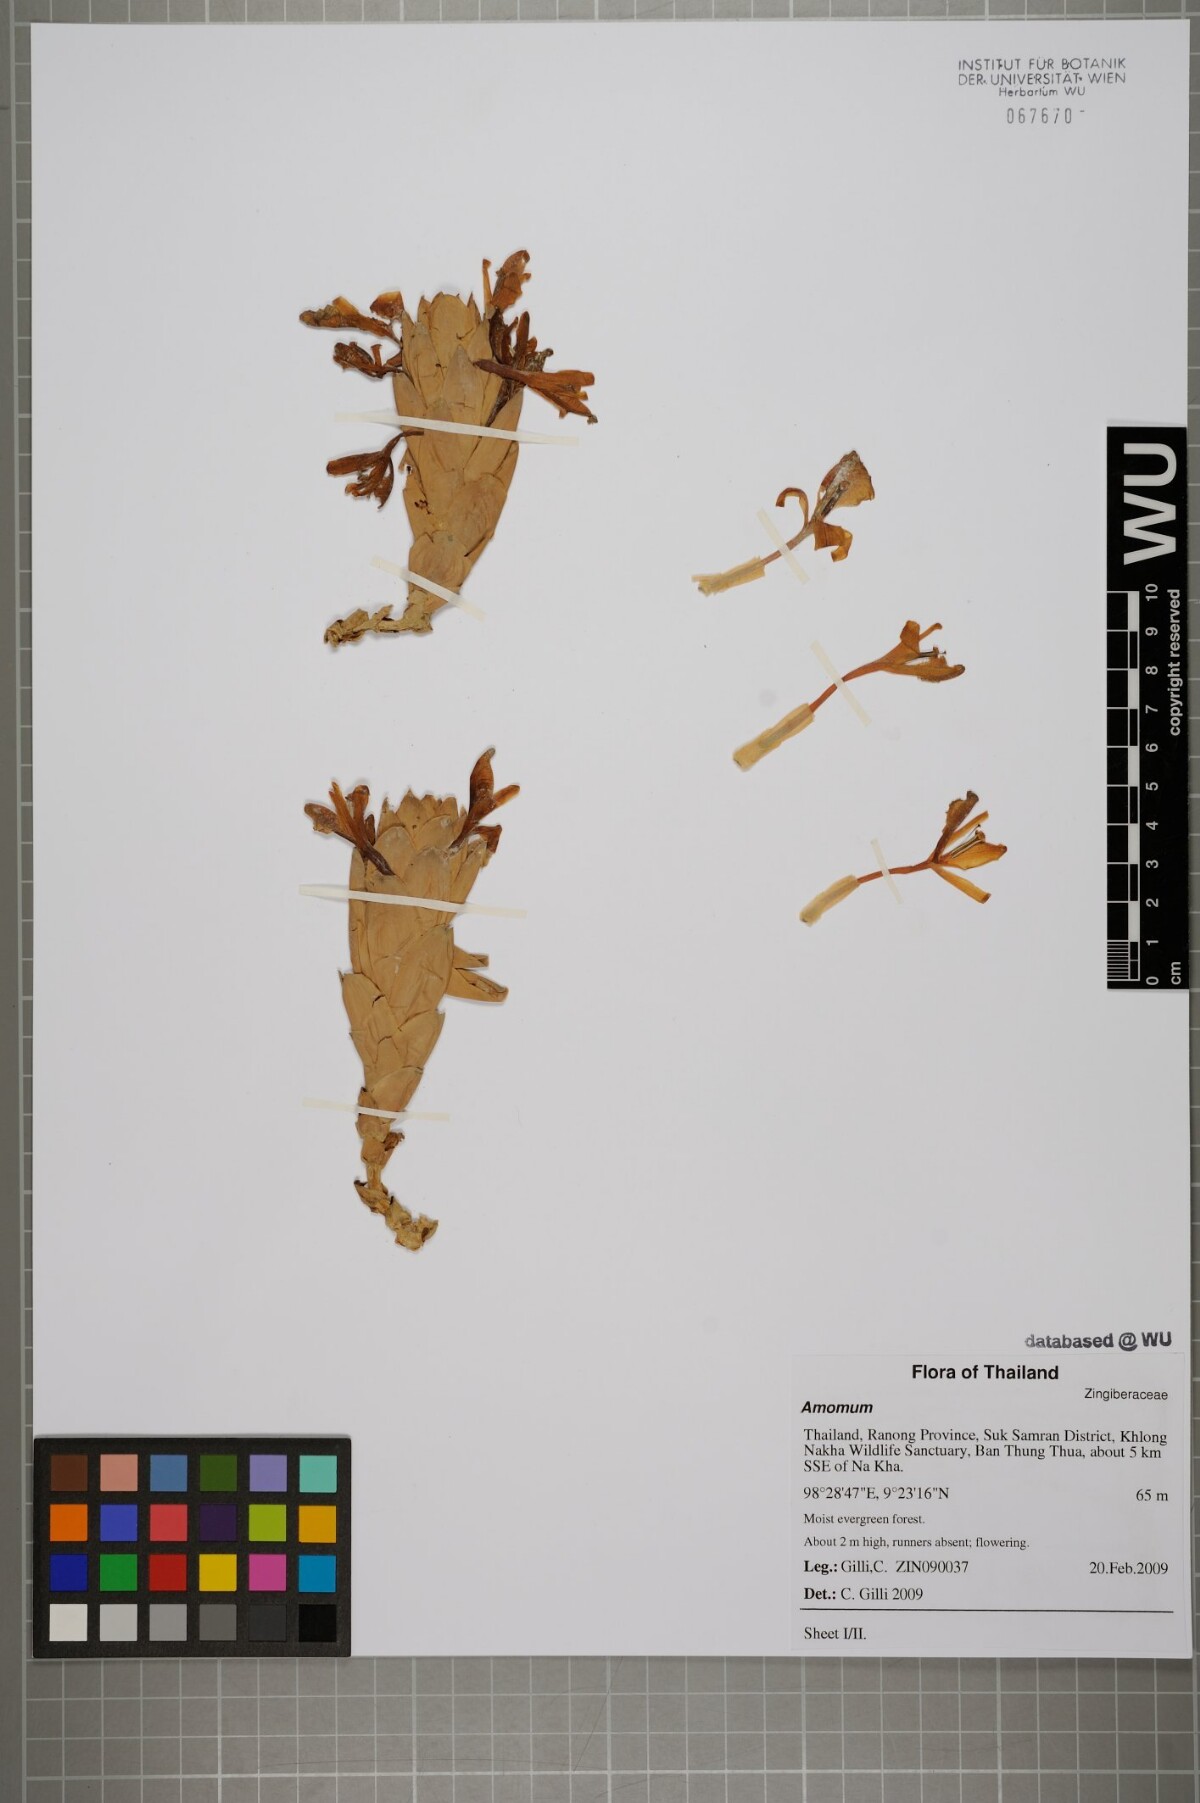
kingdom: Plantae
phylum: Tracheophyta
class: Liliopsida
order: Zingiberales
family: Zingiberaceae
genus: Amomum
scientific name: Amomum
